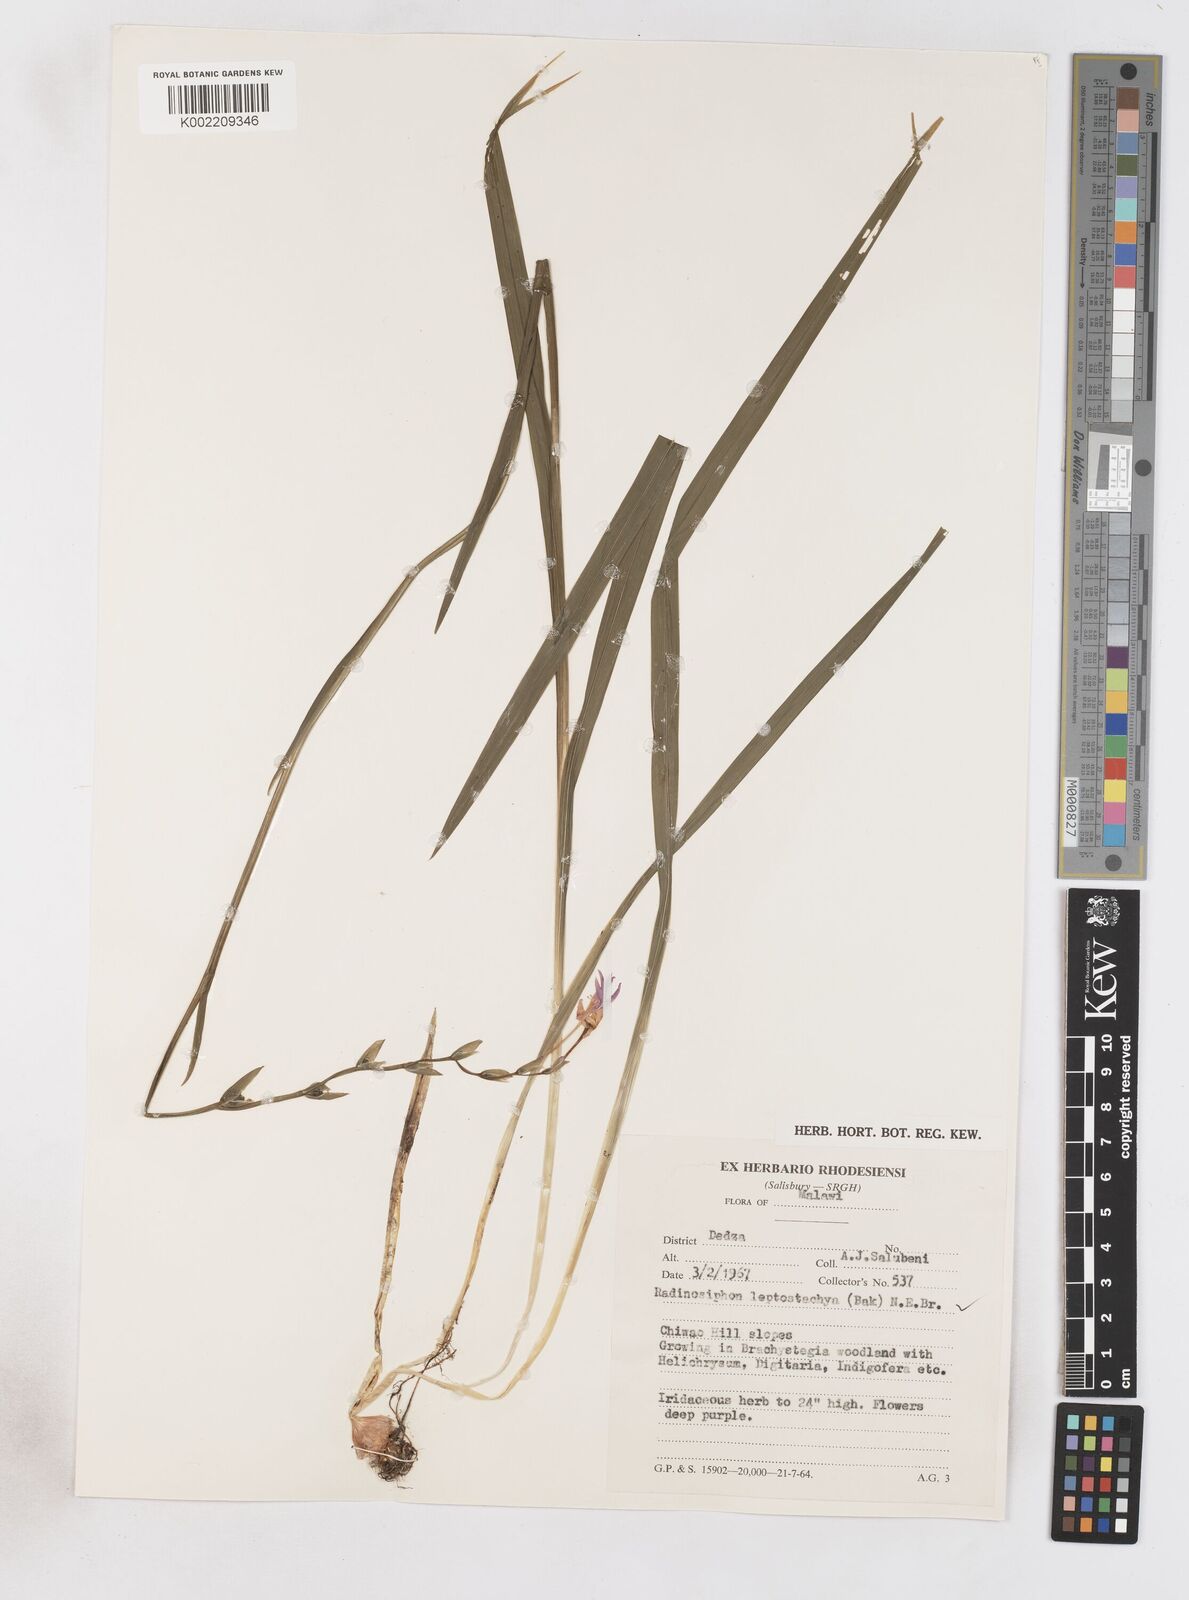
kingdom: Plantae
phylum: Tracheophyta
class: Liliopsida
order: Asparagales
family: Iridaceae
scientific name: Iridaceae
